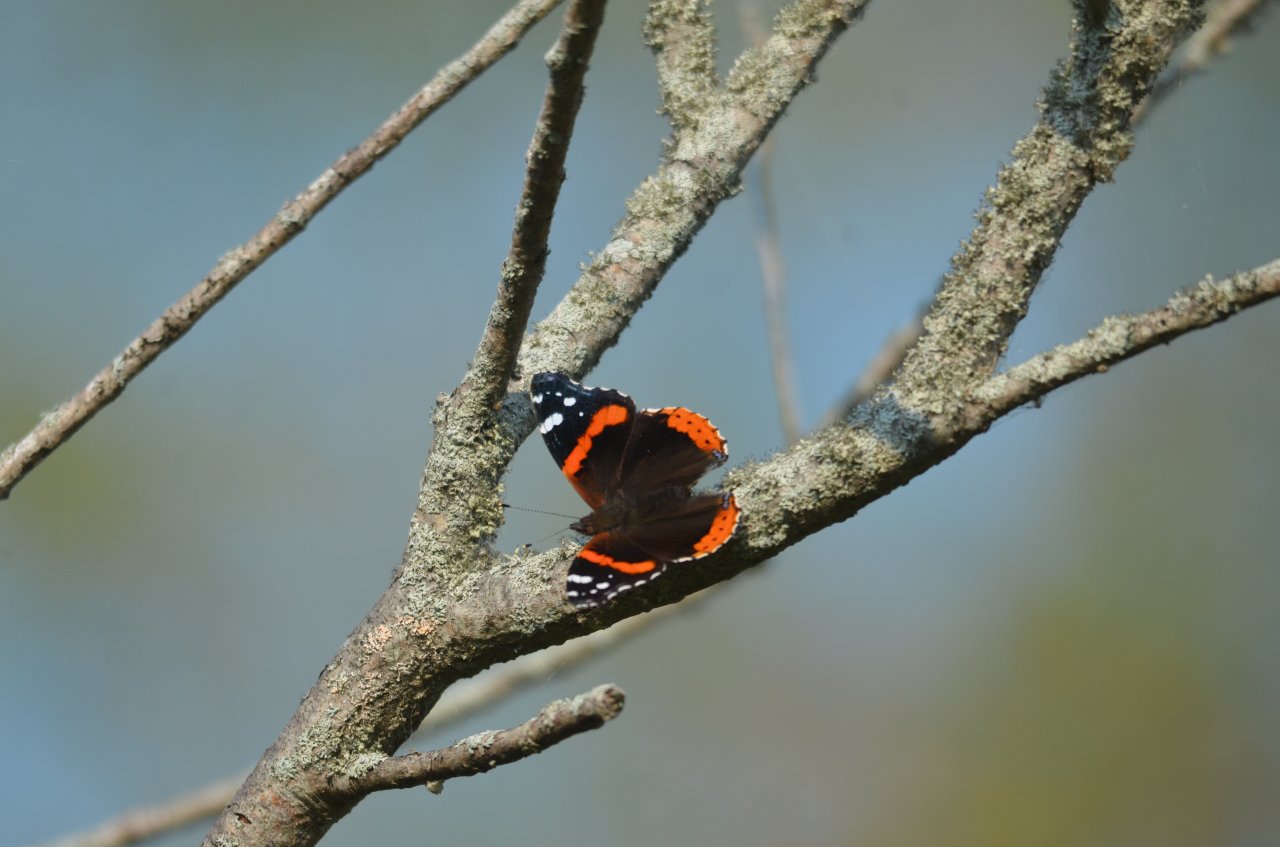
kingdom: Animalia
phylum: Arthropoda
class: Insecta
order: Lepidoptera
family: Nymphalidae
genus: Vanessa
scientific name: Vanessa atalanta
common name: Red Admiral
